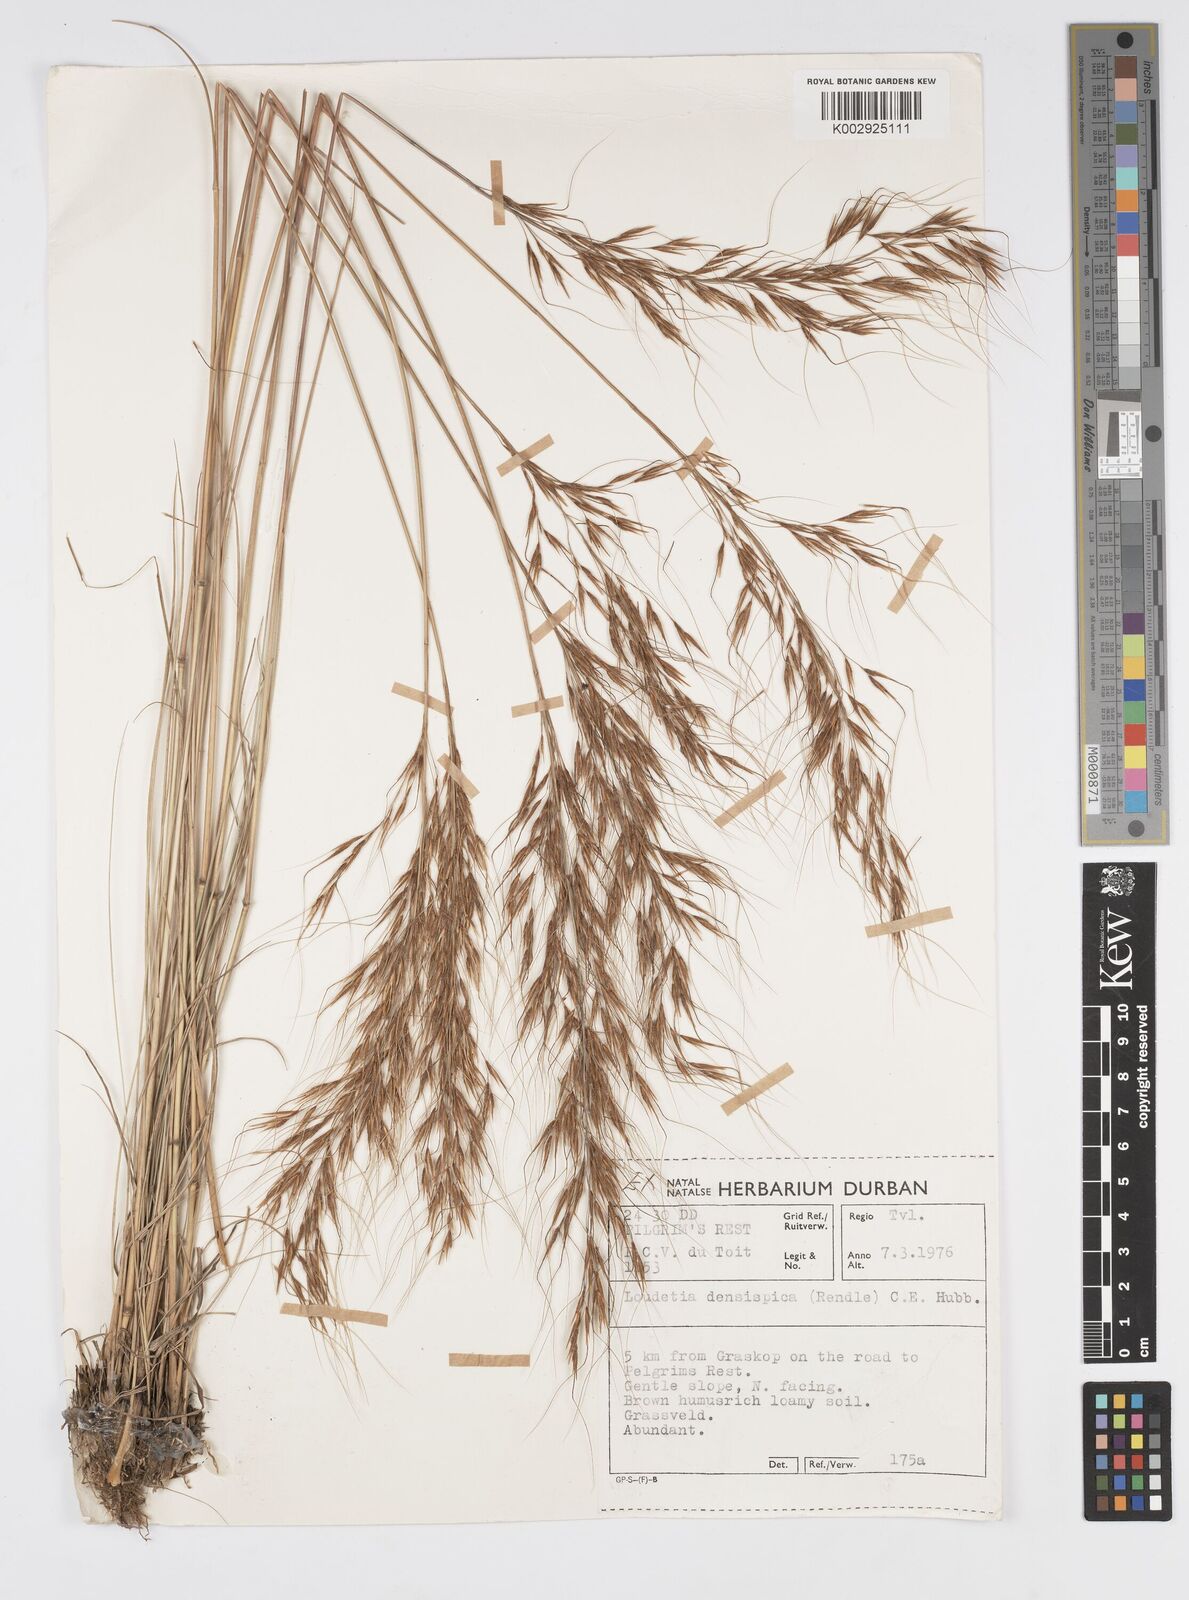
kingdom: Plantae
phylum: Tracheophyta
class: Liliopsida
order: Poales
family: Poaceae
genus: Loudetia
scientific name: Loudetia simplex
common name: Common russet grass
